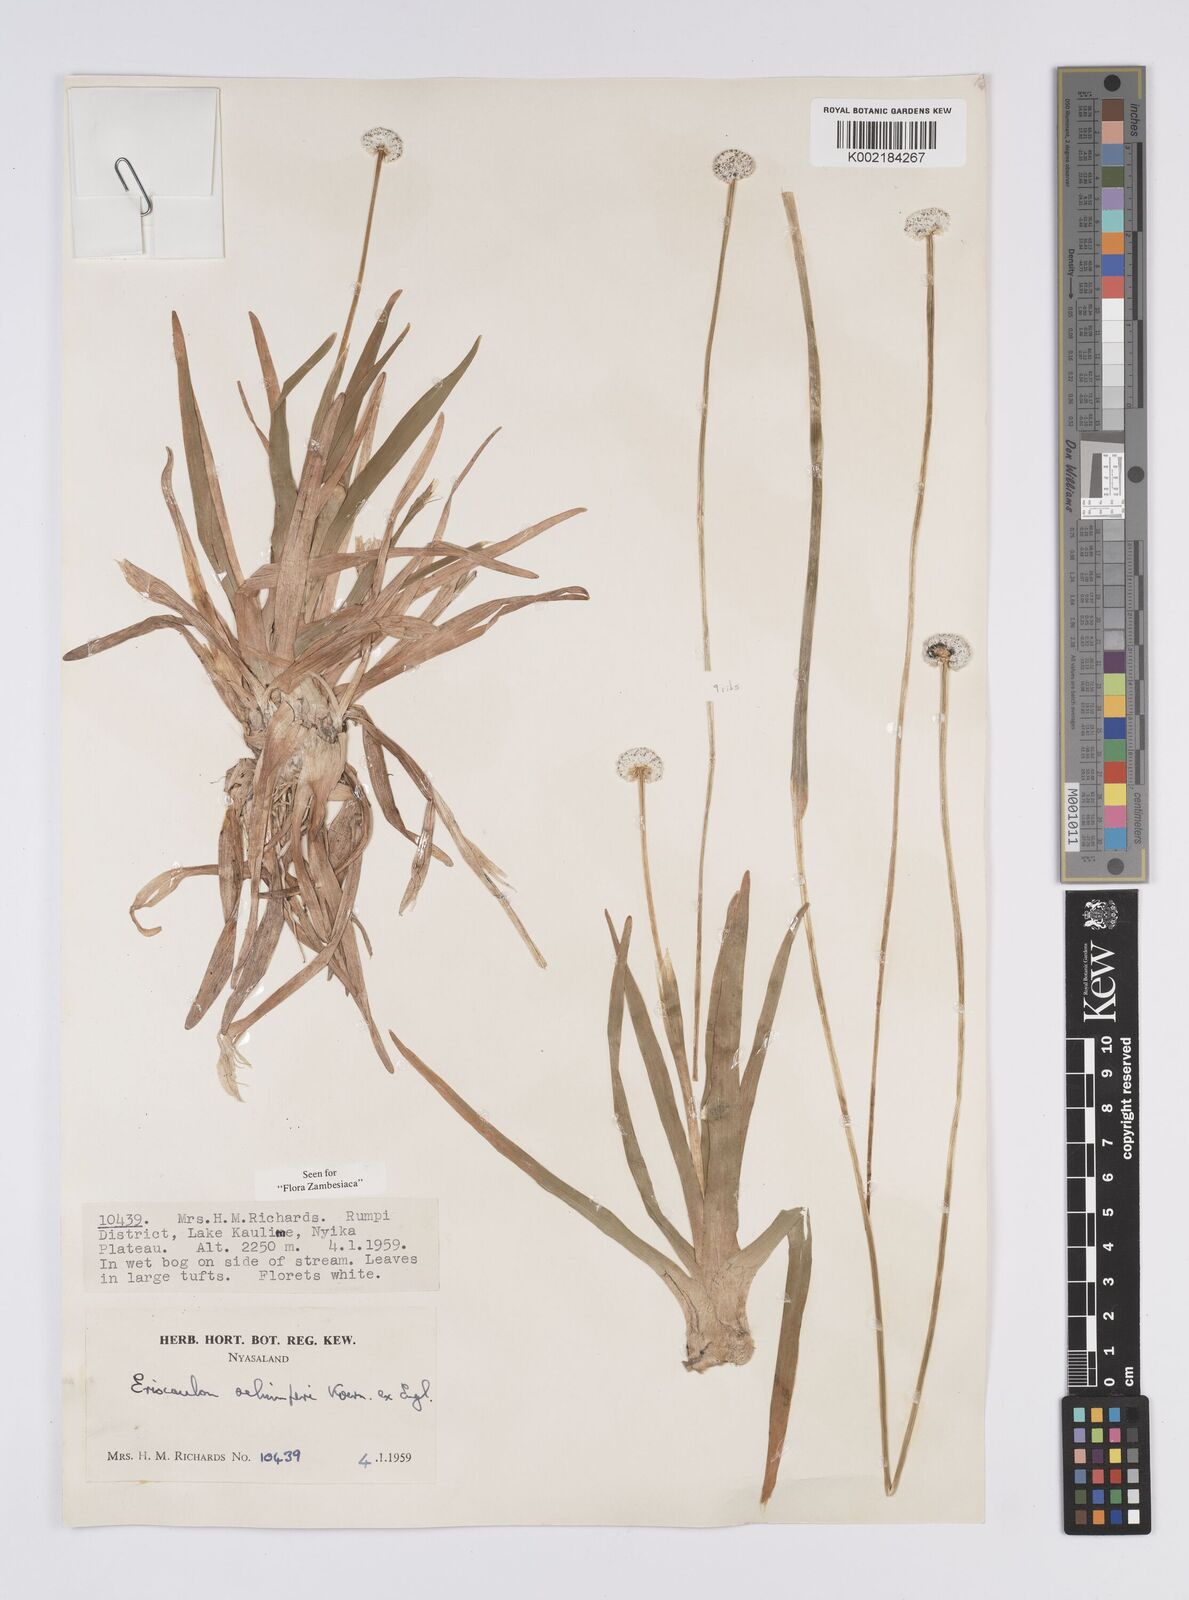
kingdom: Plantae
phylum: Tracheophyta
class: Liliopsida
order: Poales
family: Eriocaulaceae
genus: Eriocaulon
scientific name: Eriocaulon schimperi
